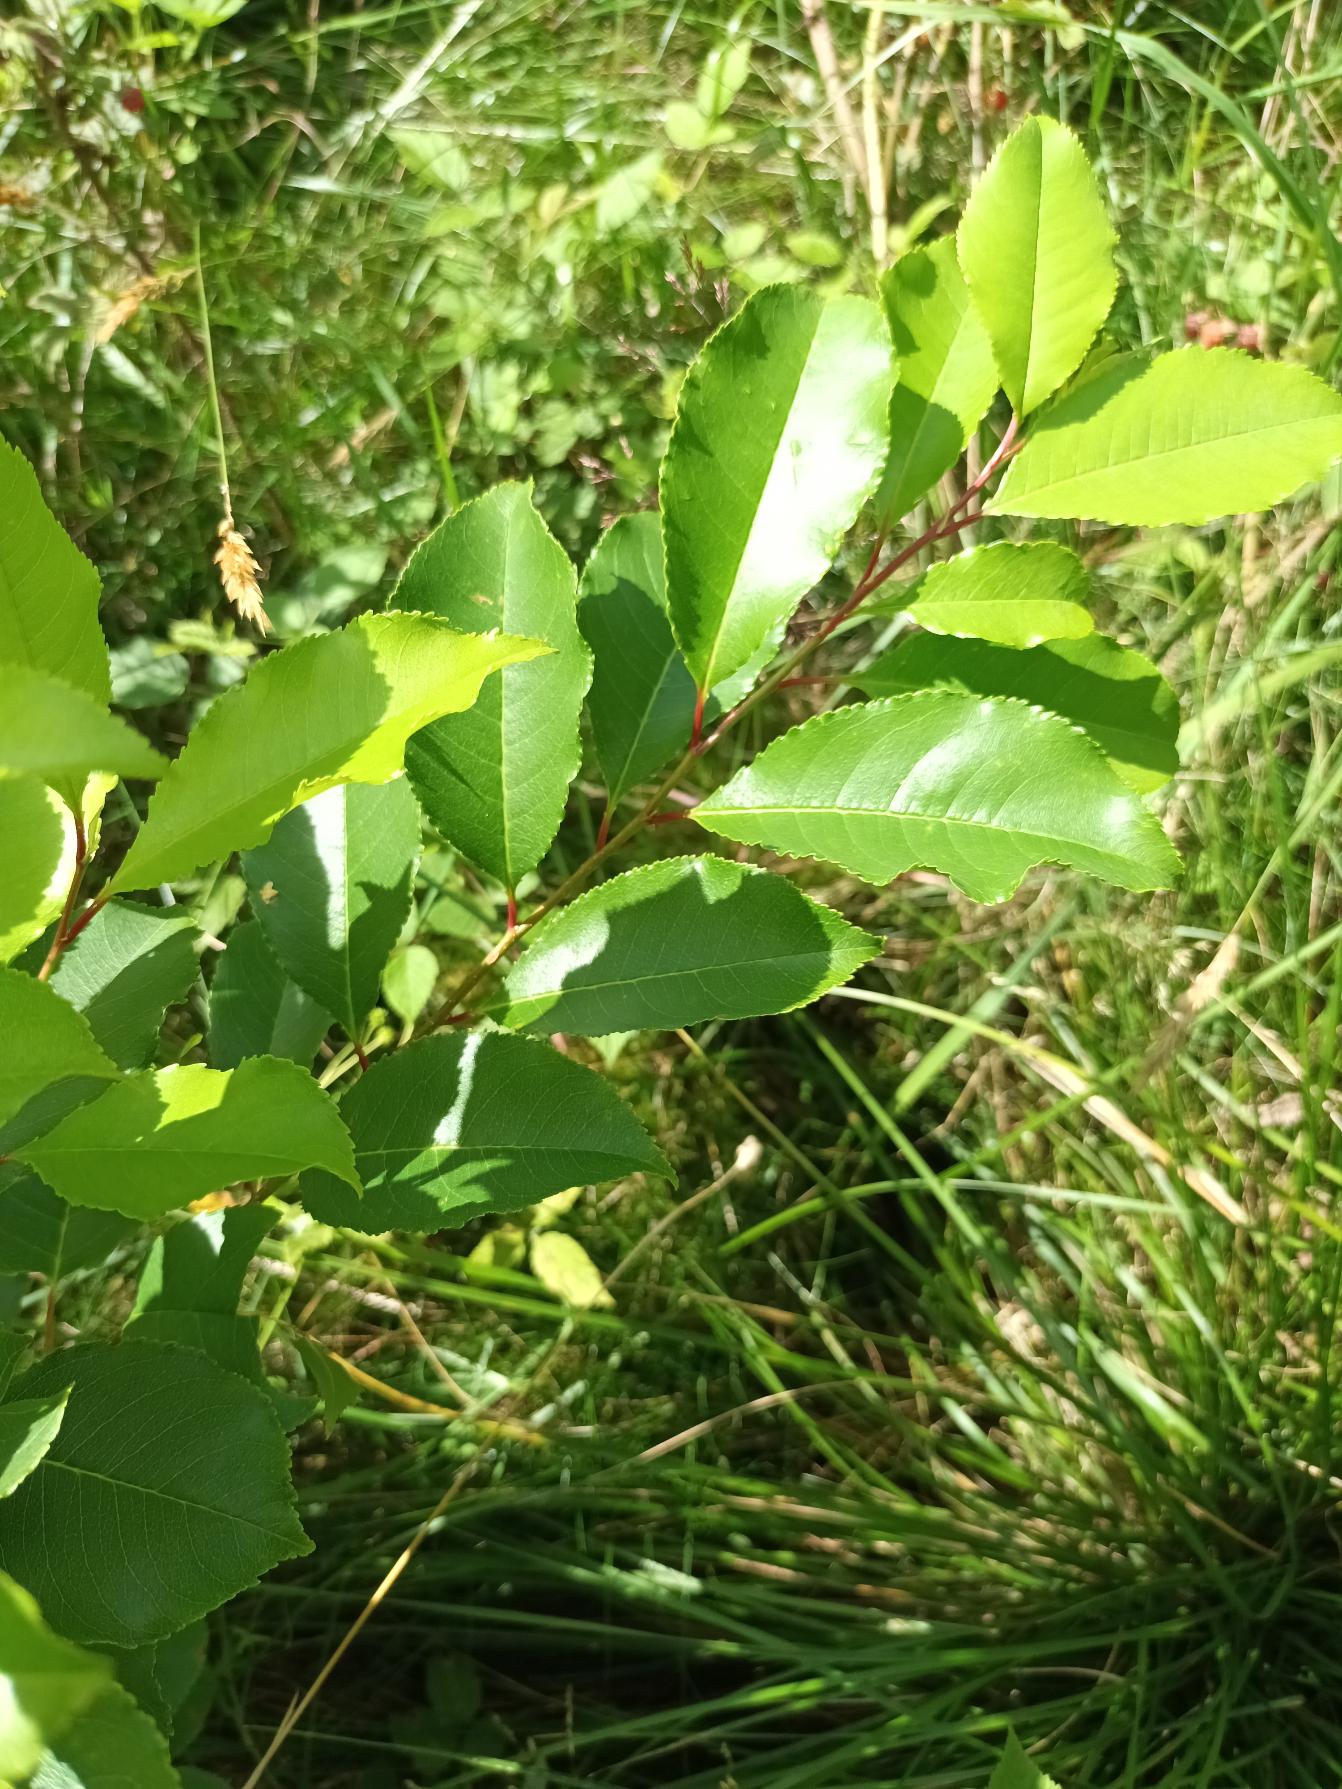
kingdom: Plantae
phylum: Tracheophyta
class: Magnoliopsida
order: Rosales
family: Rosaceae
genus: Prunus
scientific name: Prunus serotina
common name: Glansbladet hæg
